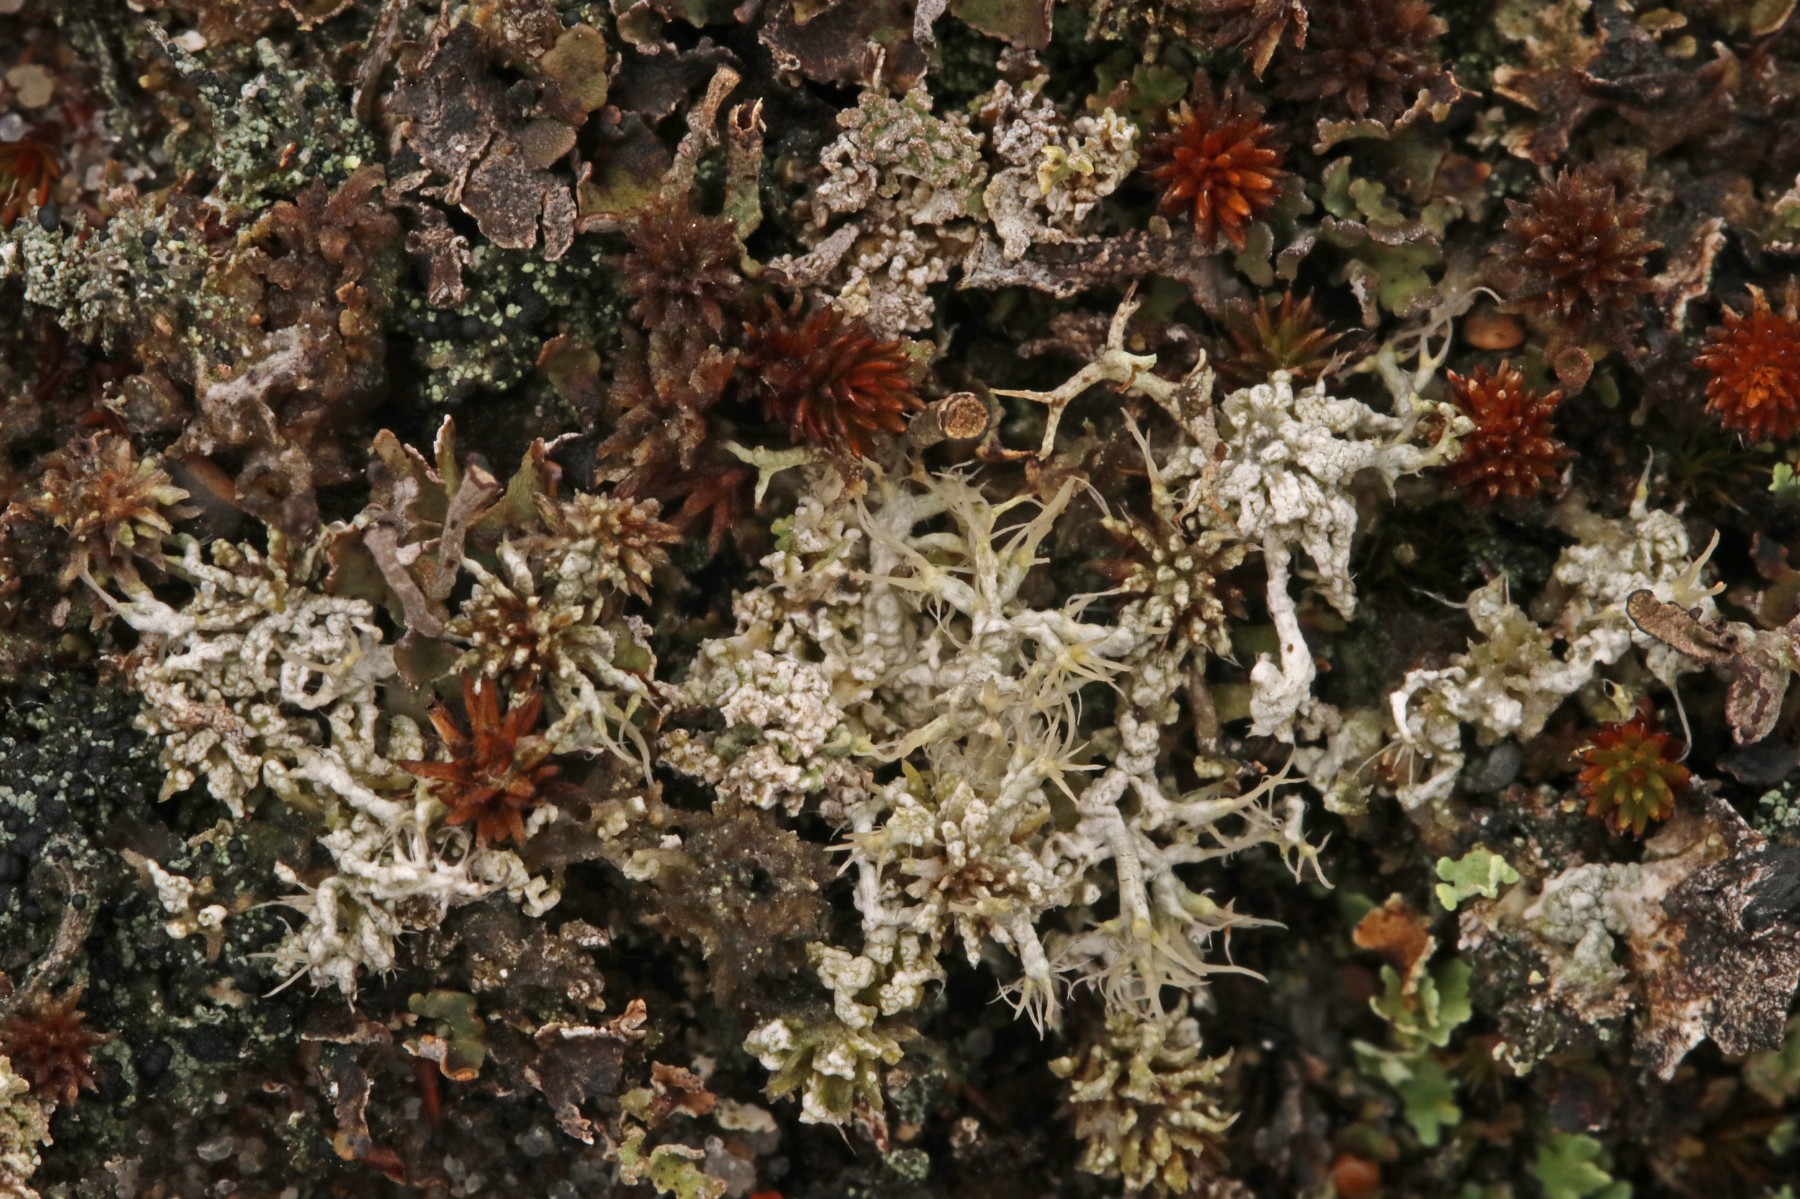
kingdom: Fungi
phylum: Ascomycota
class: Lecanoromycetes
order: Pertusariales
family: Ochrolechiaceae
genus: Ochrolechia
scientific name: Ochrolechia frigida
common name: fjeld-blegskivelav
